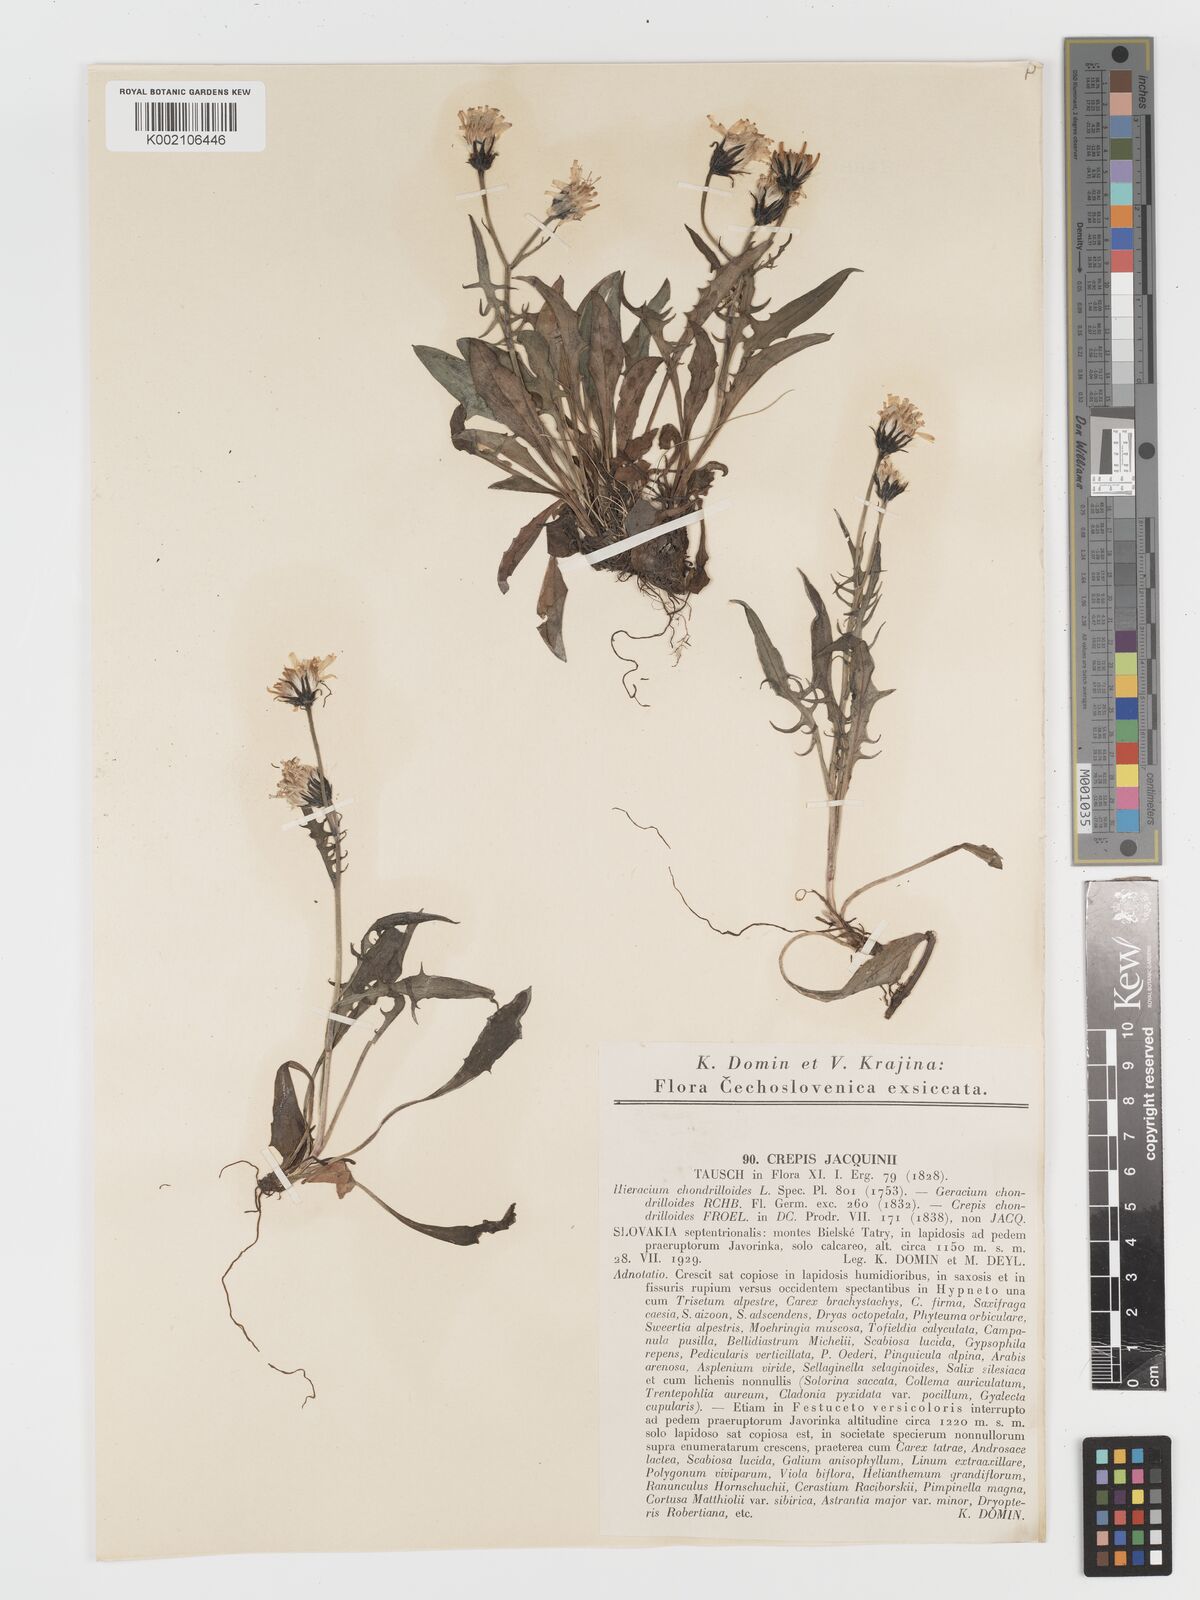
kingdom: Plantae
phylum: Tracheophyta
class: Magnoliopsida
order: Asterales
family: Asteraceae
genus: Crepis
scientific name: Crepis jacquinii
